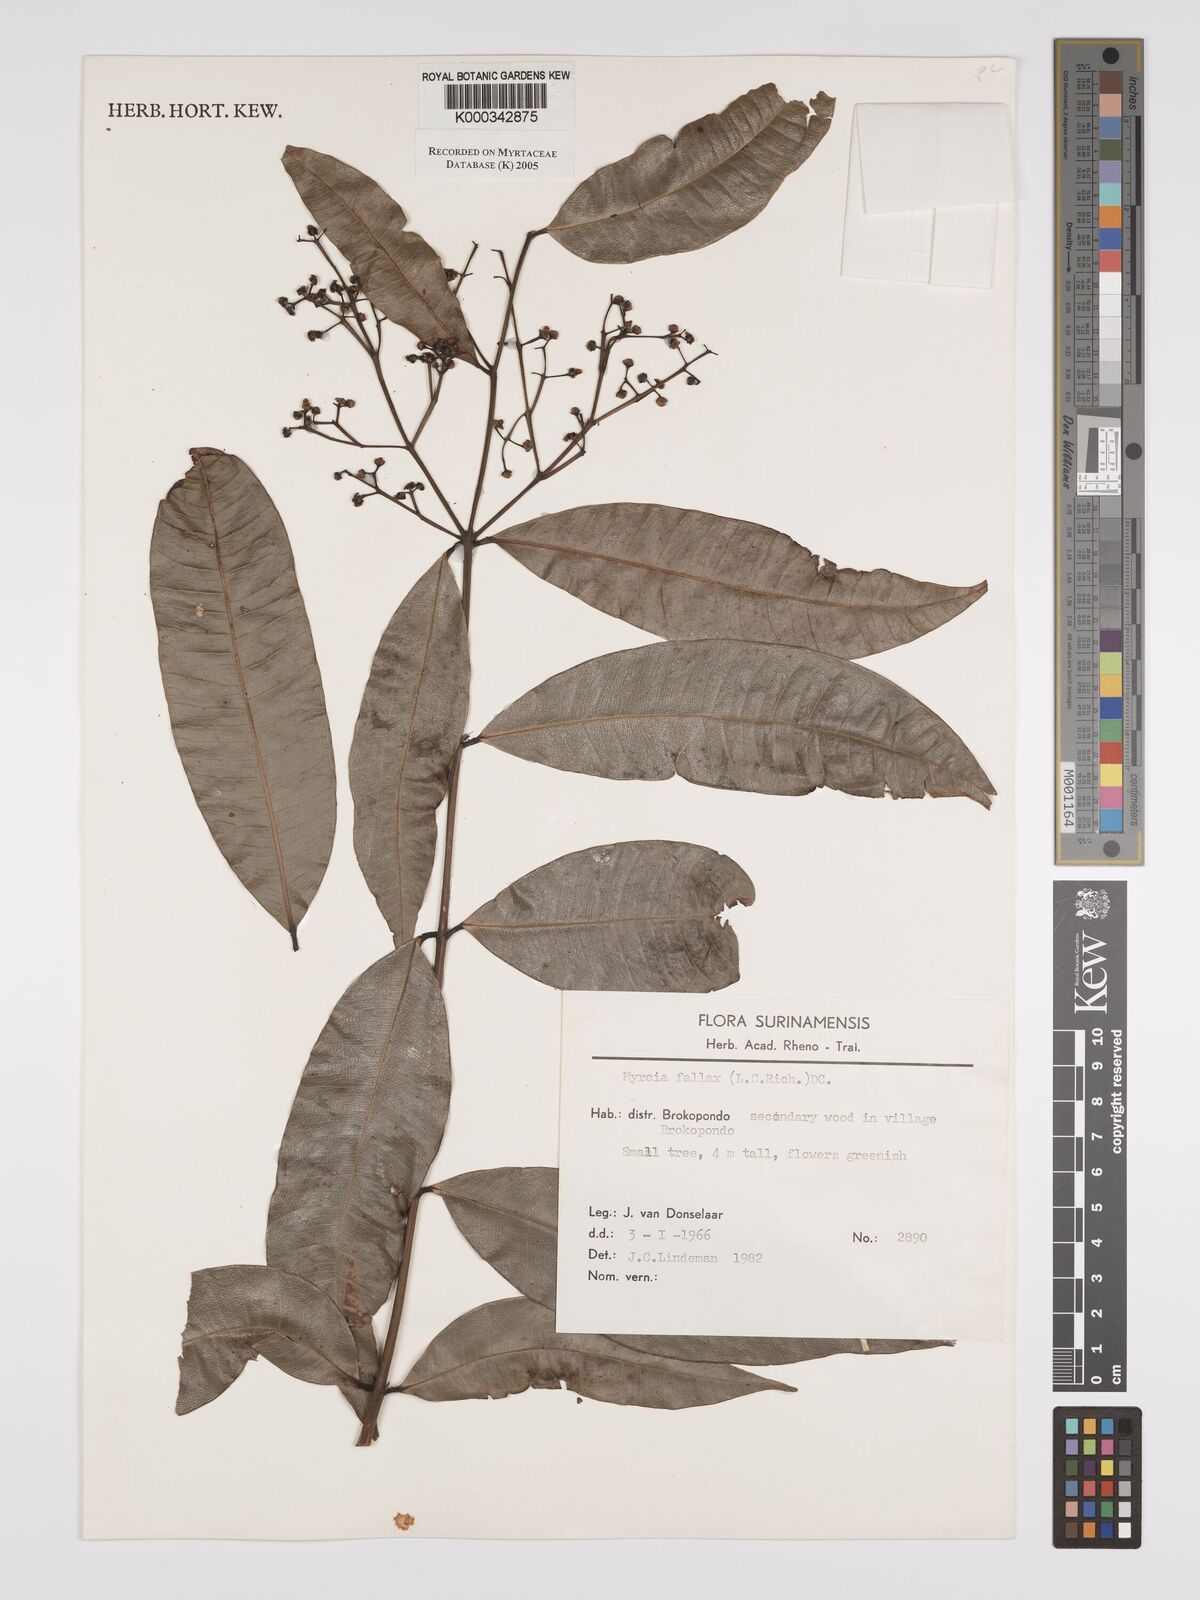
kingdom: Plantae
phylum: Tracheophyta
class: Magnoliopsida
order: Myrtales
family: Myrtaceae
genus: Myrcia
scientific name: Myrcia splendens
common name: Surinam cherry
